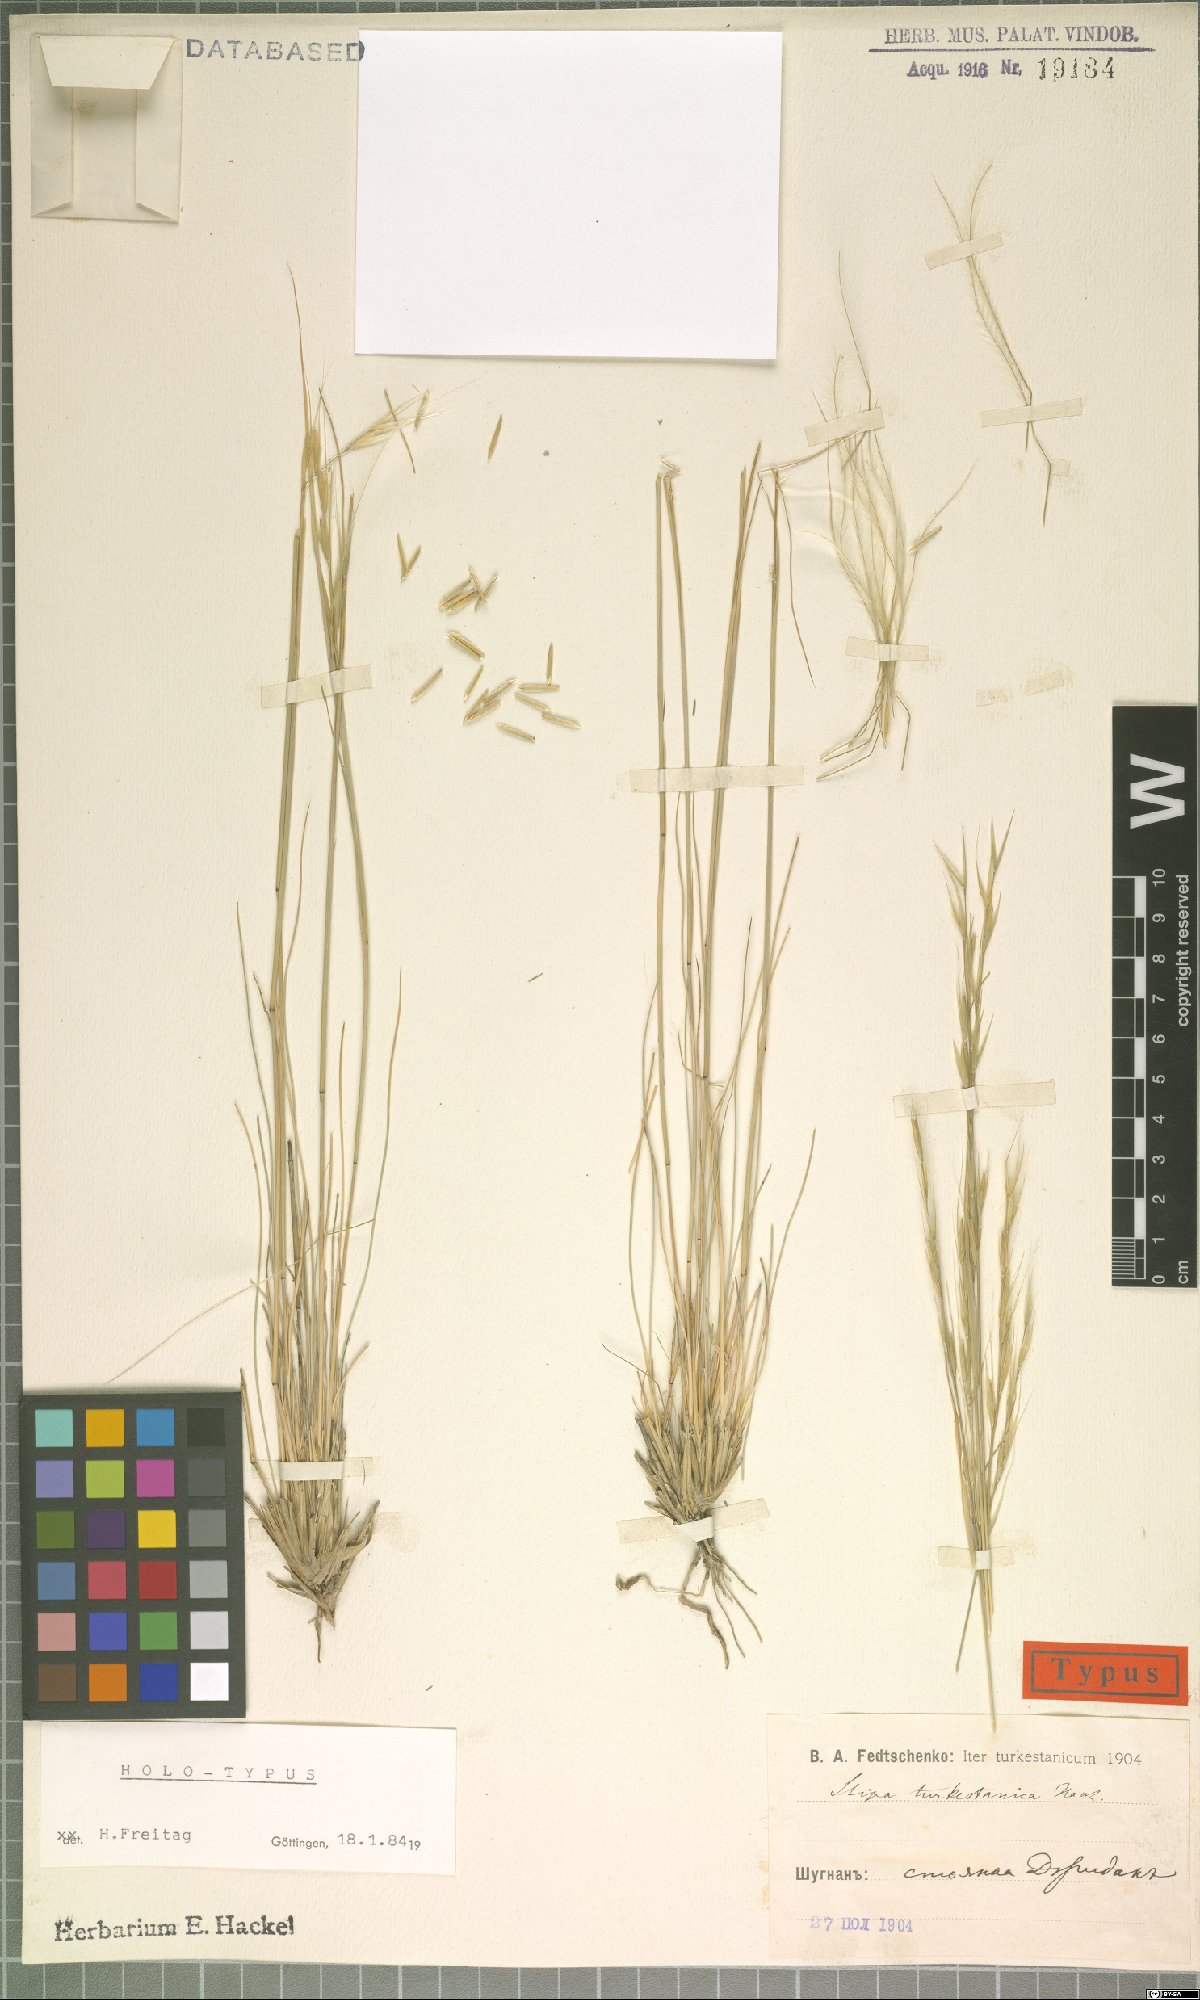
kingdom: Plantae
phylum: Tracheophyta
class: Liliopsida
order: Poales
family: Poaceae
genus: Stipa
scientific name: Stipa turkestanica
